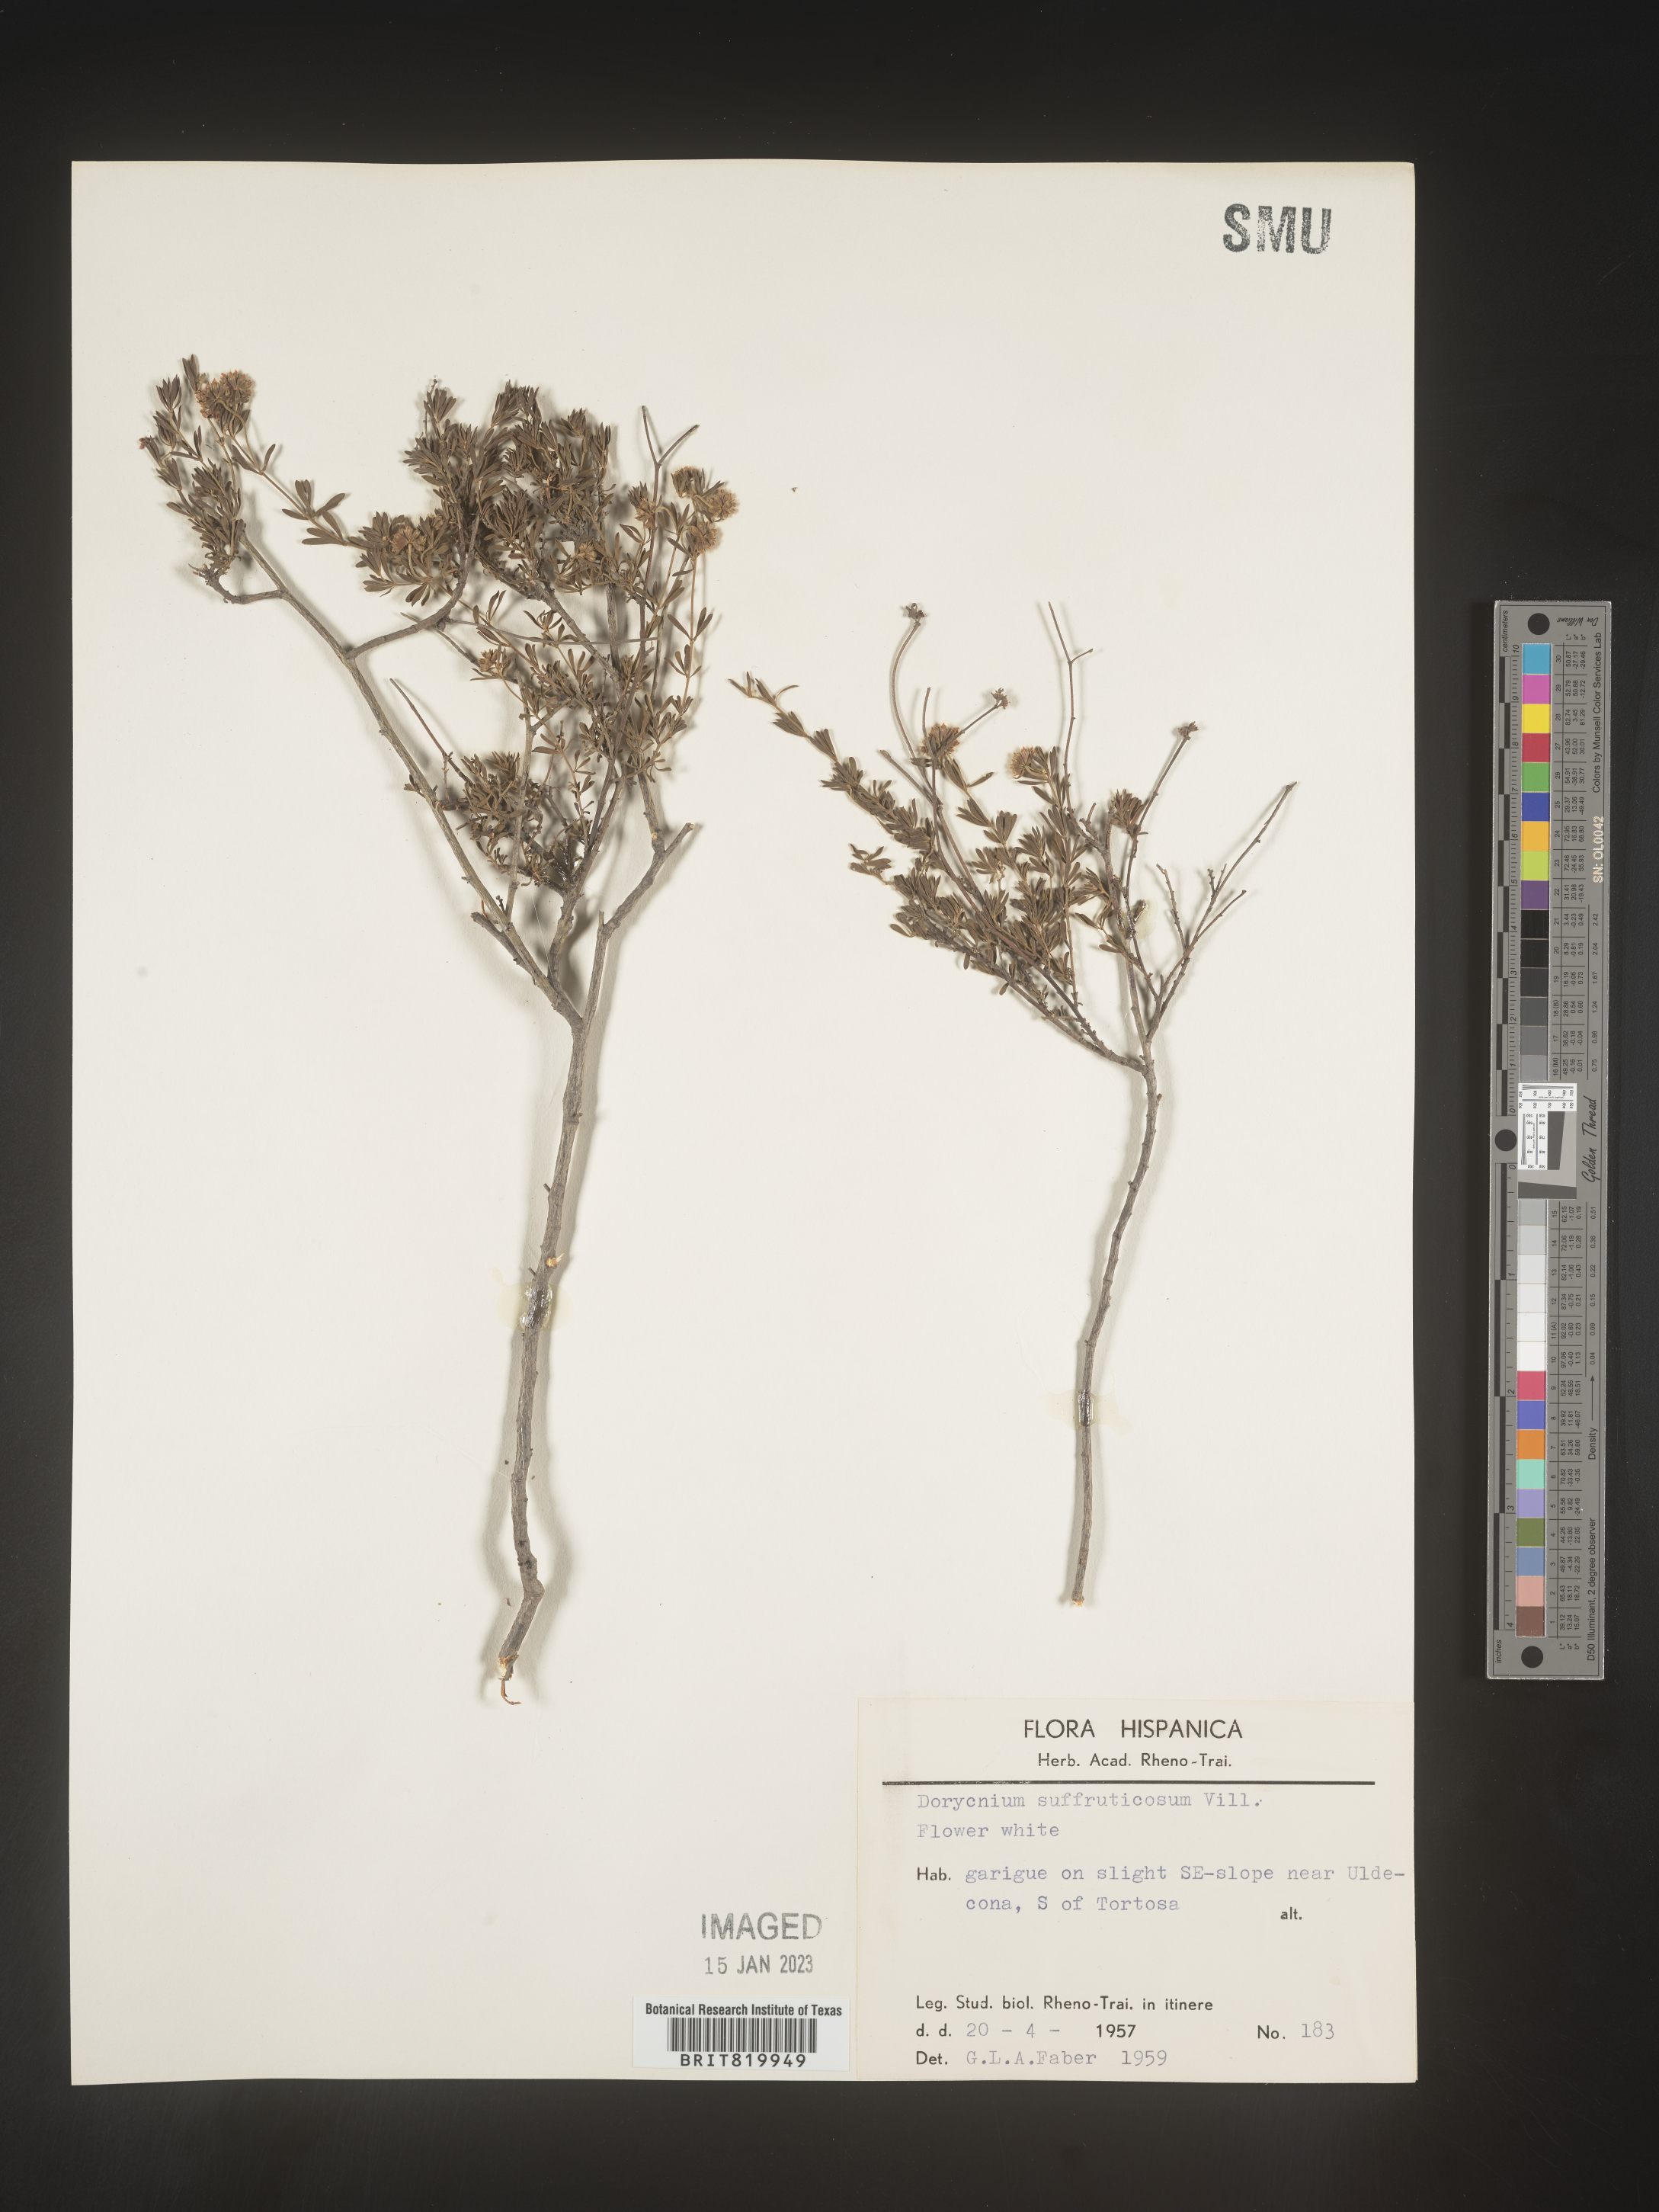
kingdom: Plantae
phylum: Tracheophyta
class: Magnoliopsida
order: Fabales
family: Fabaceae
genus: Lotus
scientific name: Lotus
